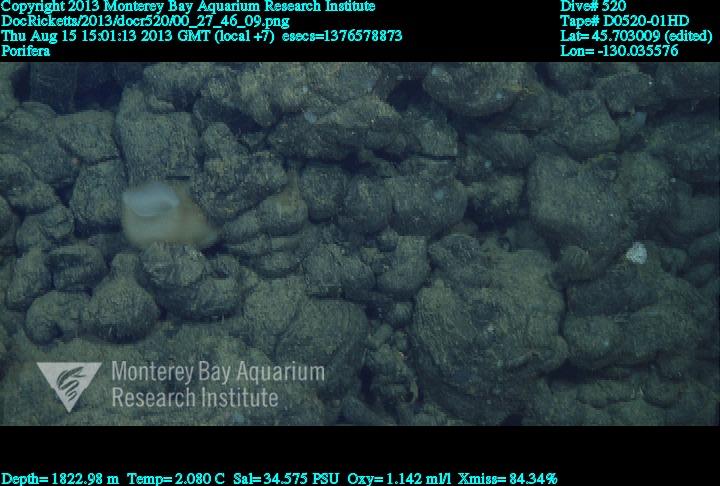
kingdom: Animalia
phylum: Porifera
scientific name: Porifera
